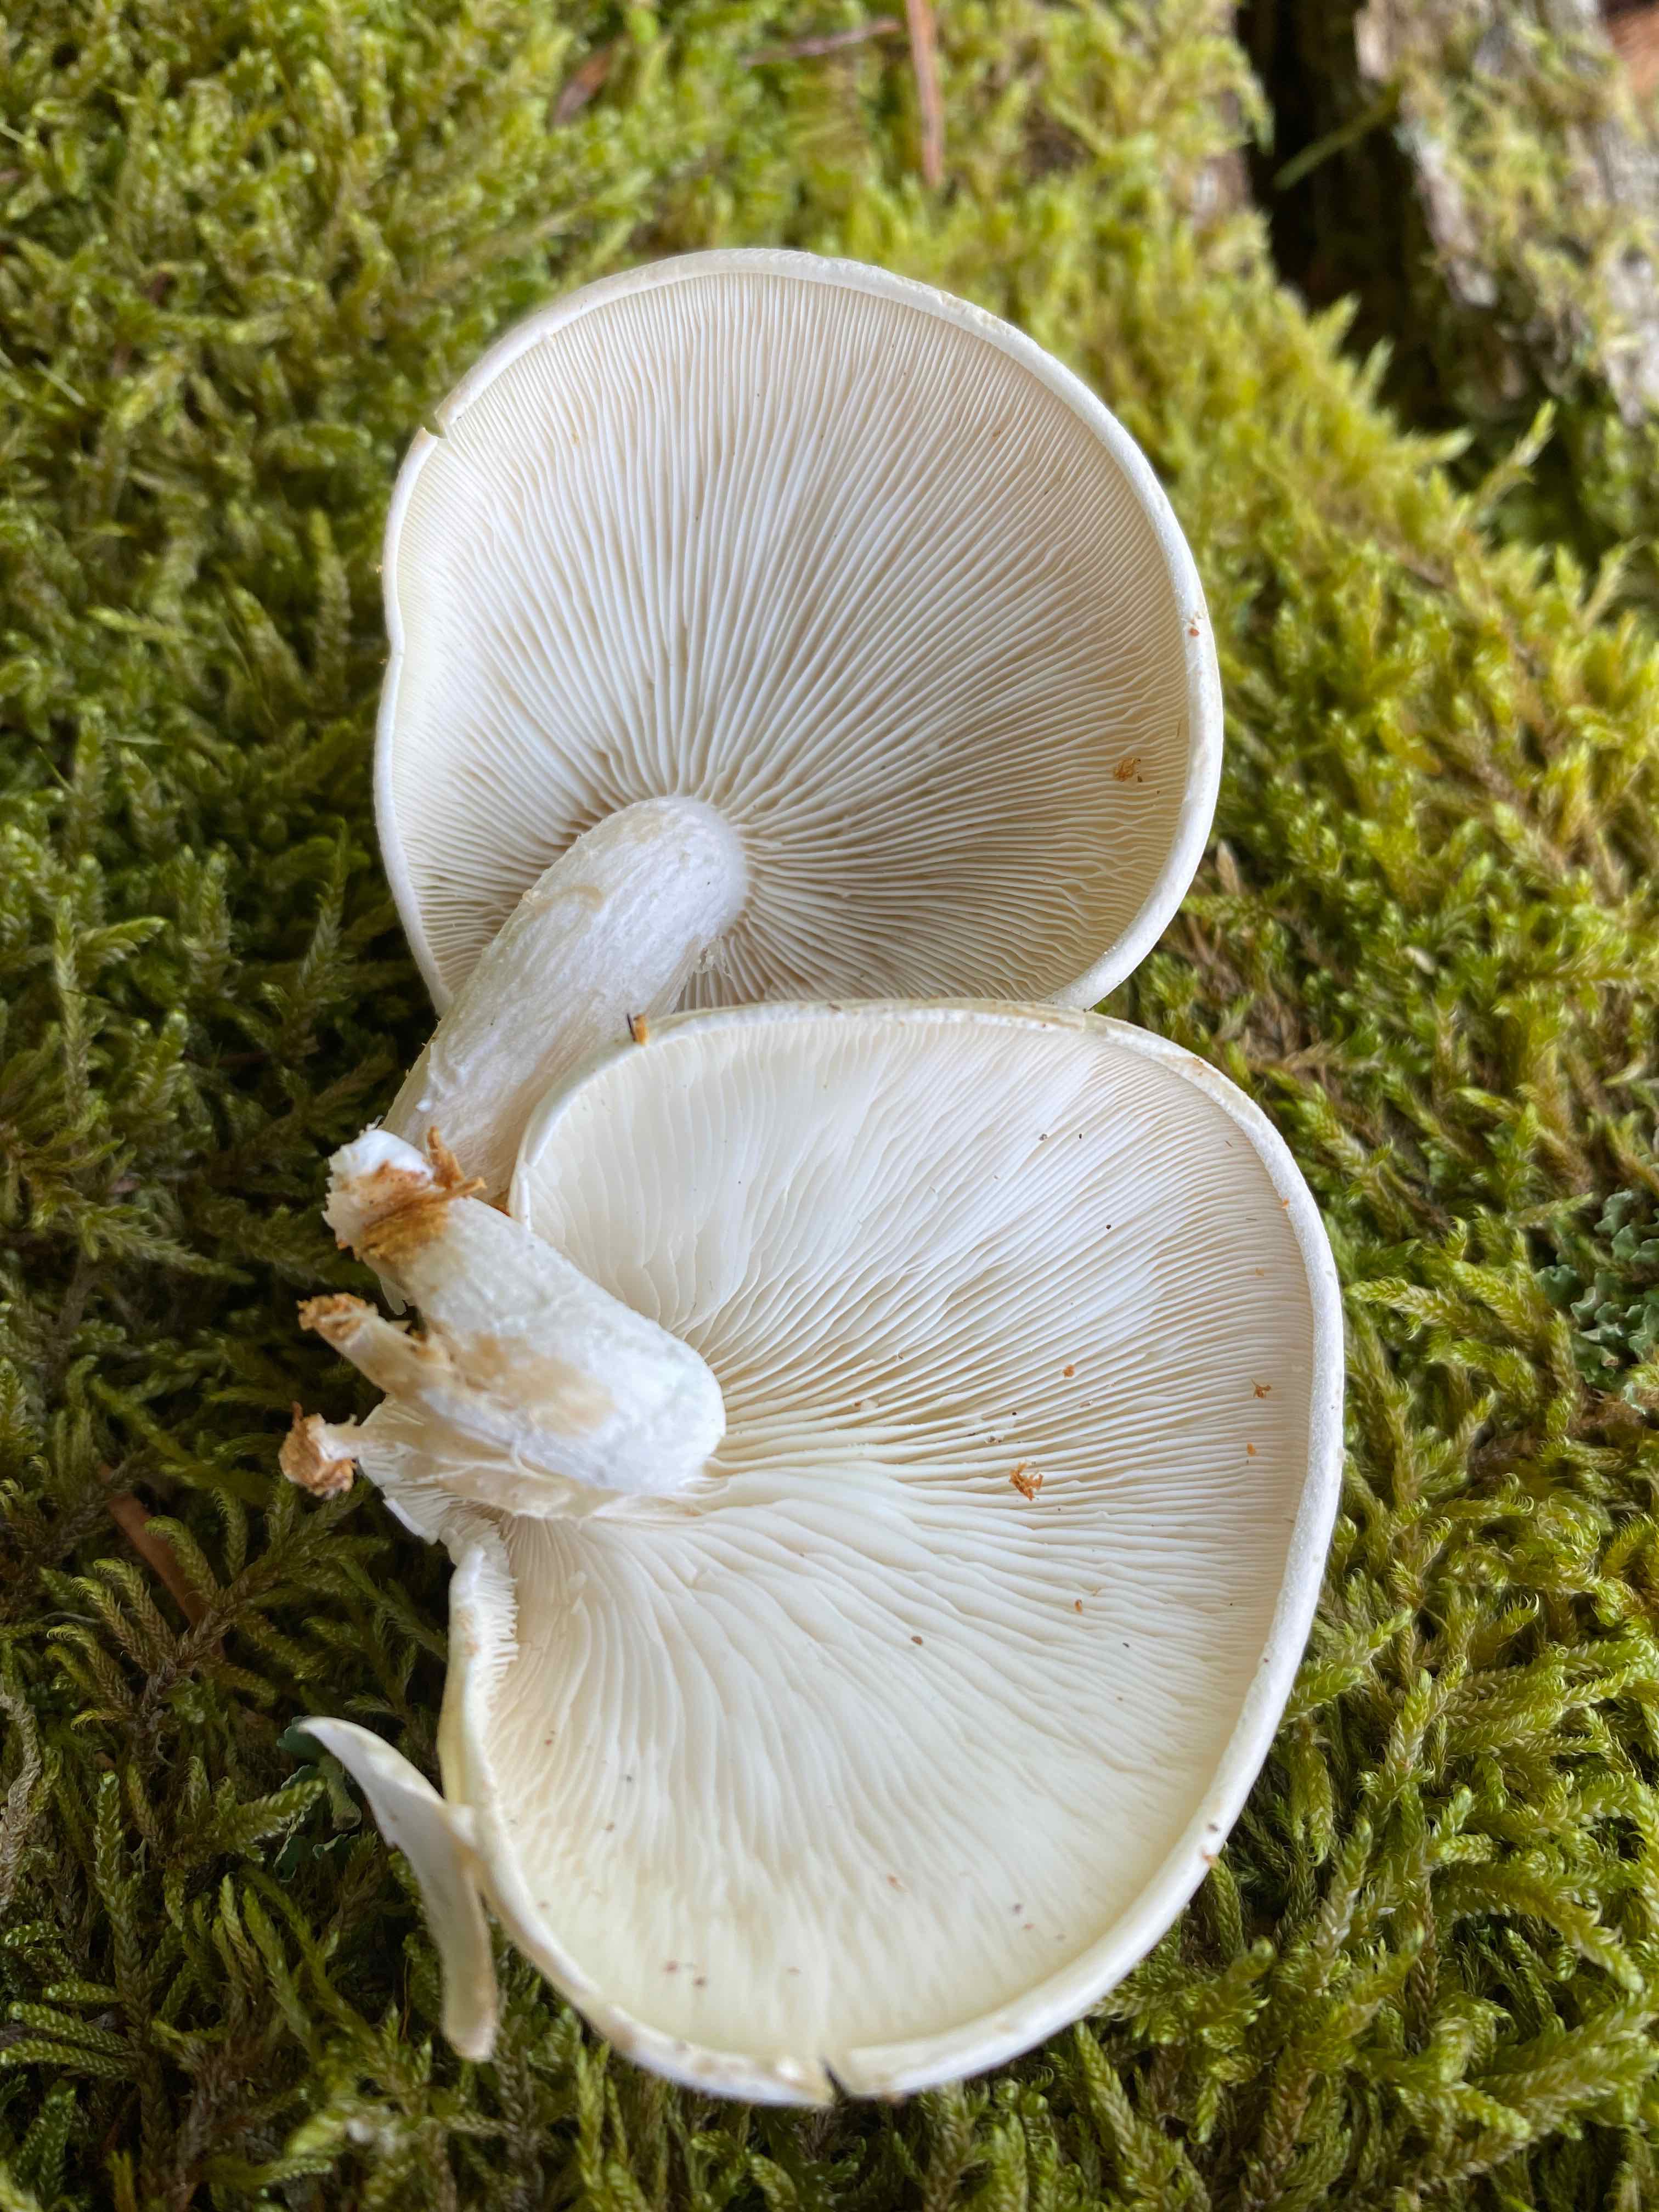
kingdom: Fungi
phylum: Basidiomycota
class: Agaricomycetes
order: Agaricales
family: Lyophyllaceae
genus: Ossicaulis
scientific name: Ossicaulis lignatilis
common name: hvidlig vedtragthat
